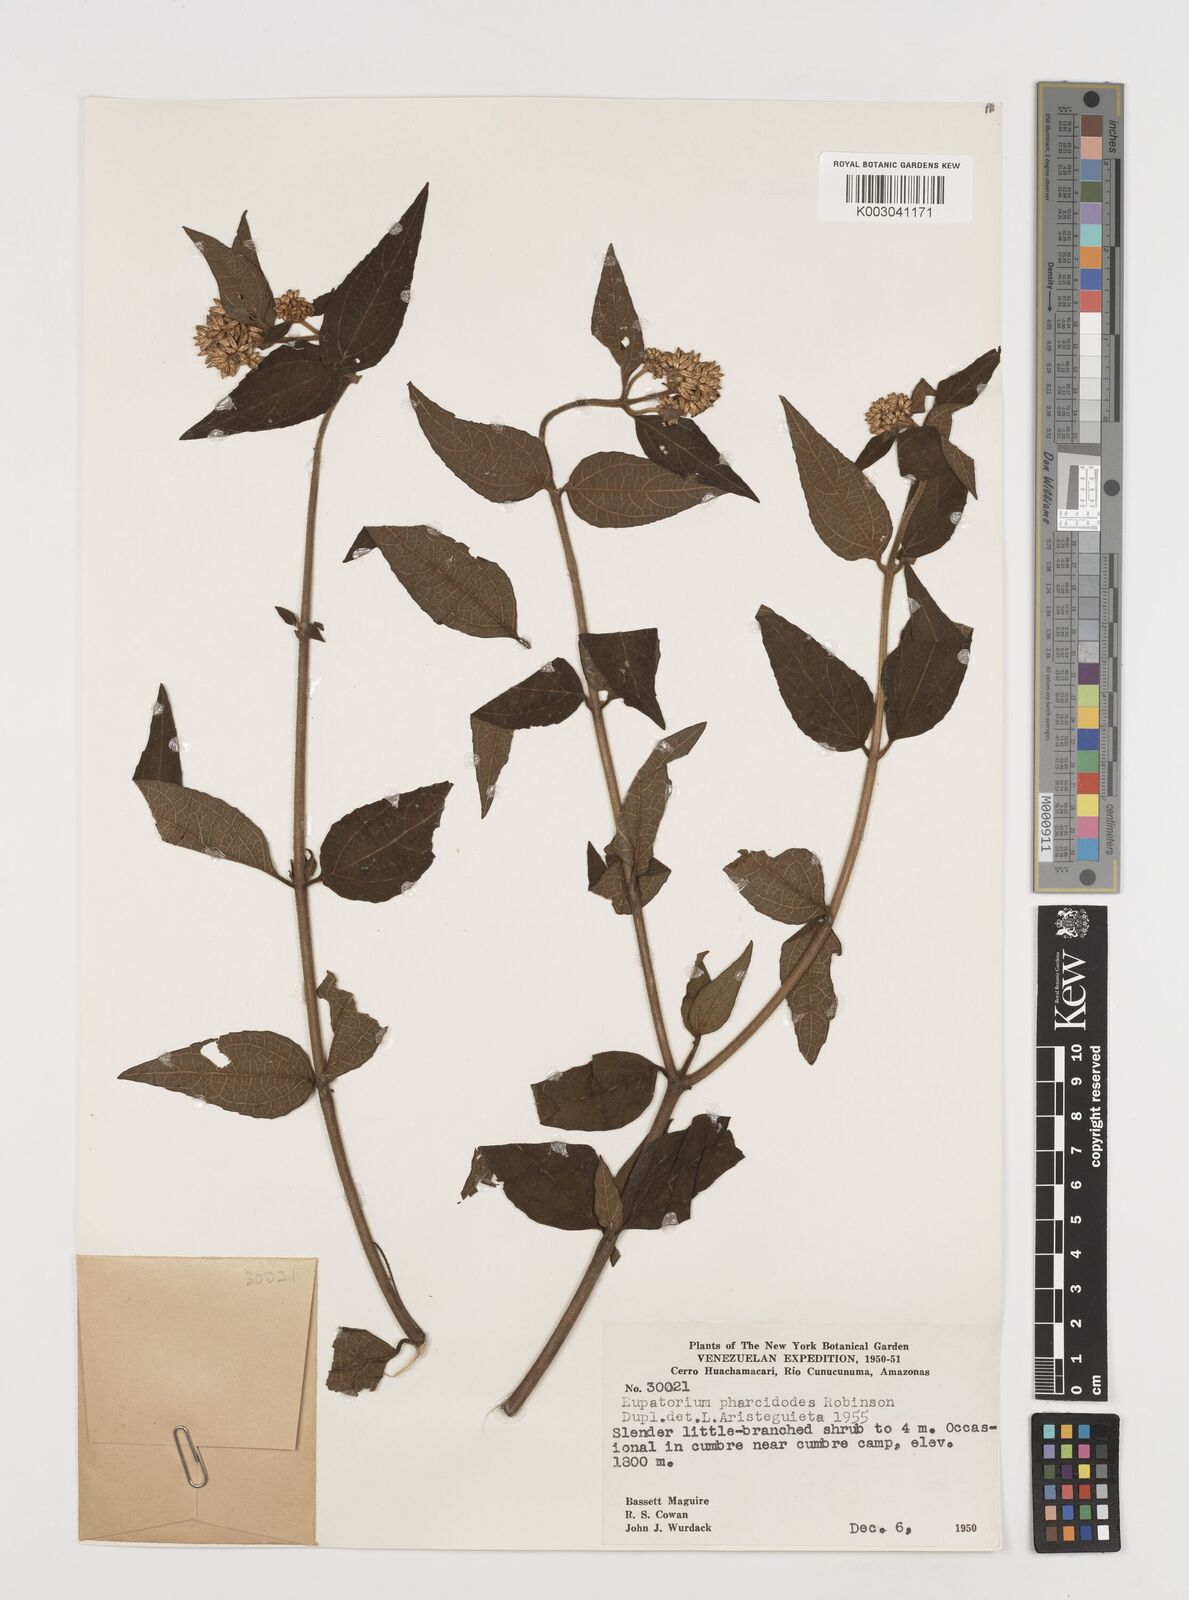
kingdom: Plantae
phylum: Tracheophyta
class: Magnoliopsida
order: Asterales
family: Asteraceae
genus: Chromolaena
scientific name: Chromolaena pharcidodes
